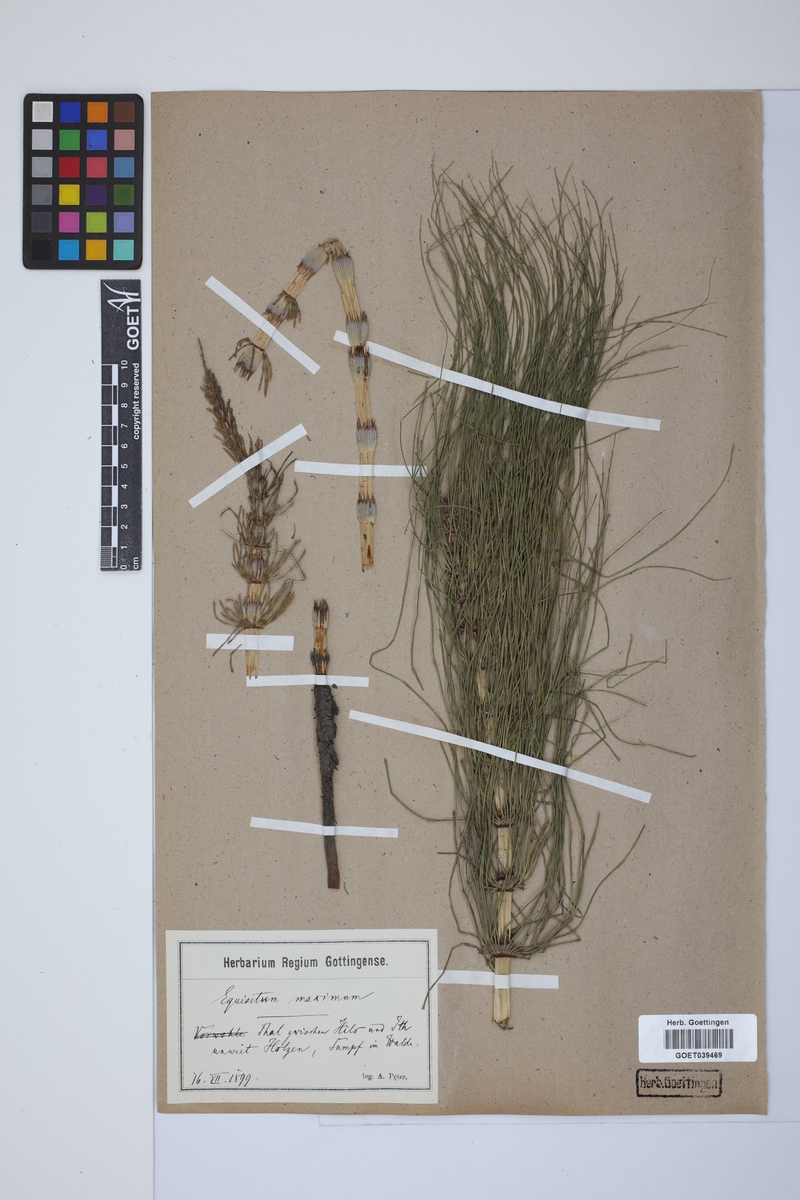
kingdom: Plantae
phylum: Tracheophyta
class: Polypodiopsida
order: Equisetales
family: Equisetaceae
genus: Equisetum
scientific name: Equisetum telmateia
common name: Great horsetail
